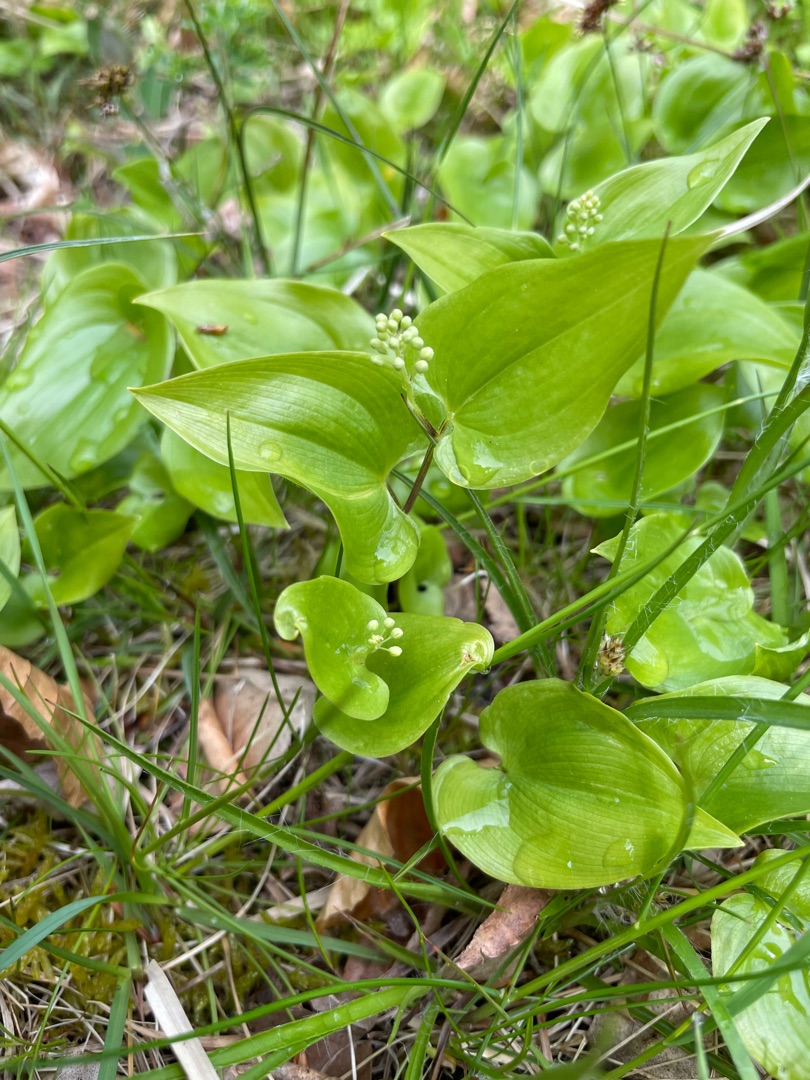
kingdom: Plantae
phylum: Tracheophyta
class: Liliopsida
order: Asparagales
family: Asparagaceae
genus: Maianthemum
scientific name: Maianthemum bifolium
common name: Majblomst
